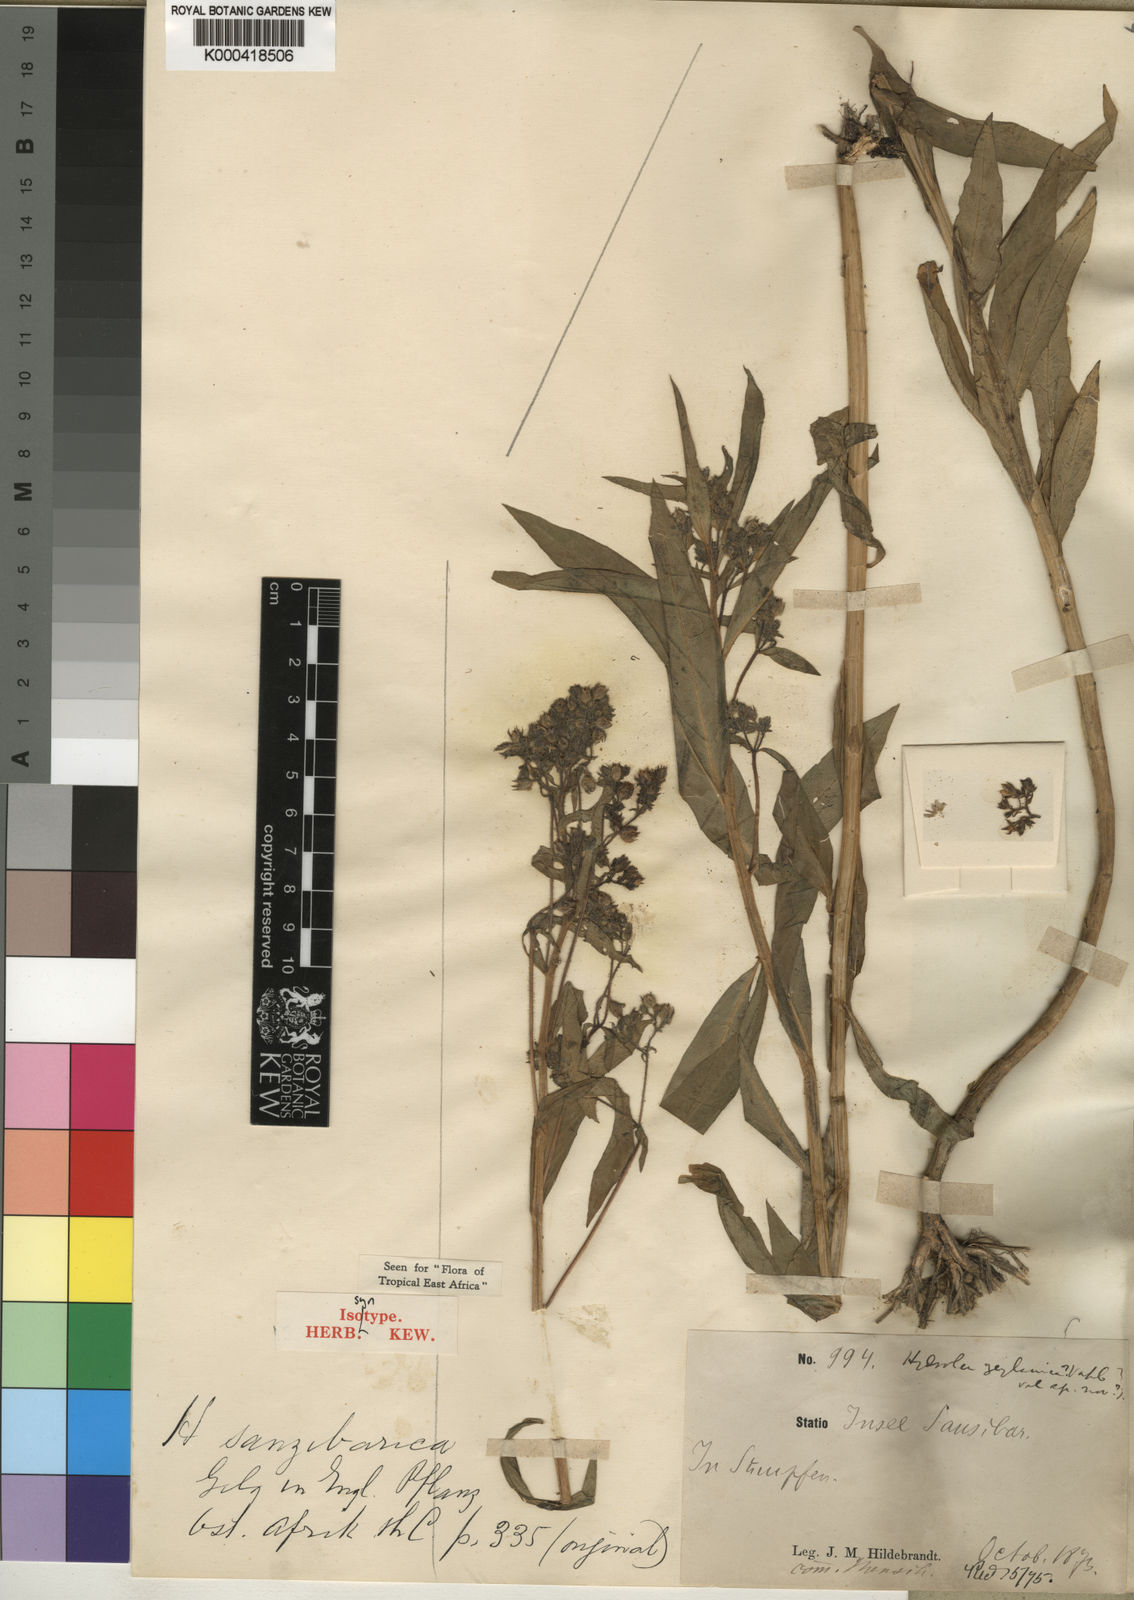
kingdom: Plantae
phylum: Tracheophyta
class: Magnoliopsida
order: Solanales
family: Hydroleaceae
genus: Hydrolea
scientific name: Hydrolea zeylanica
